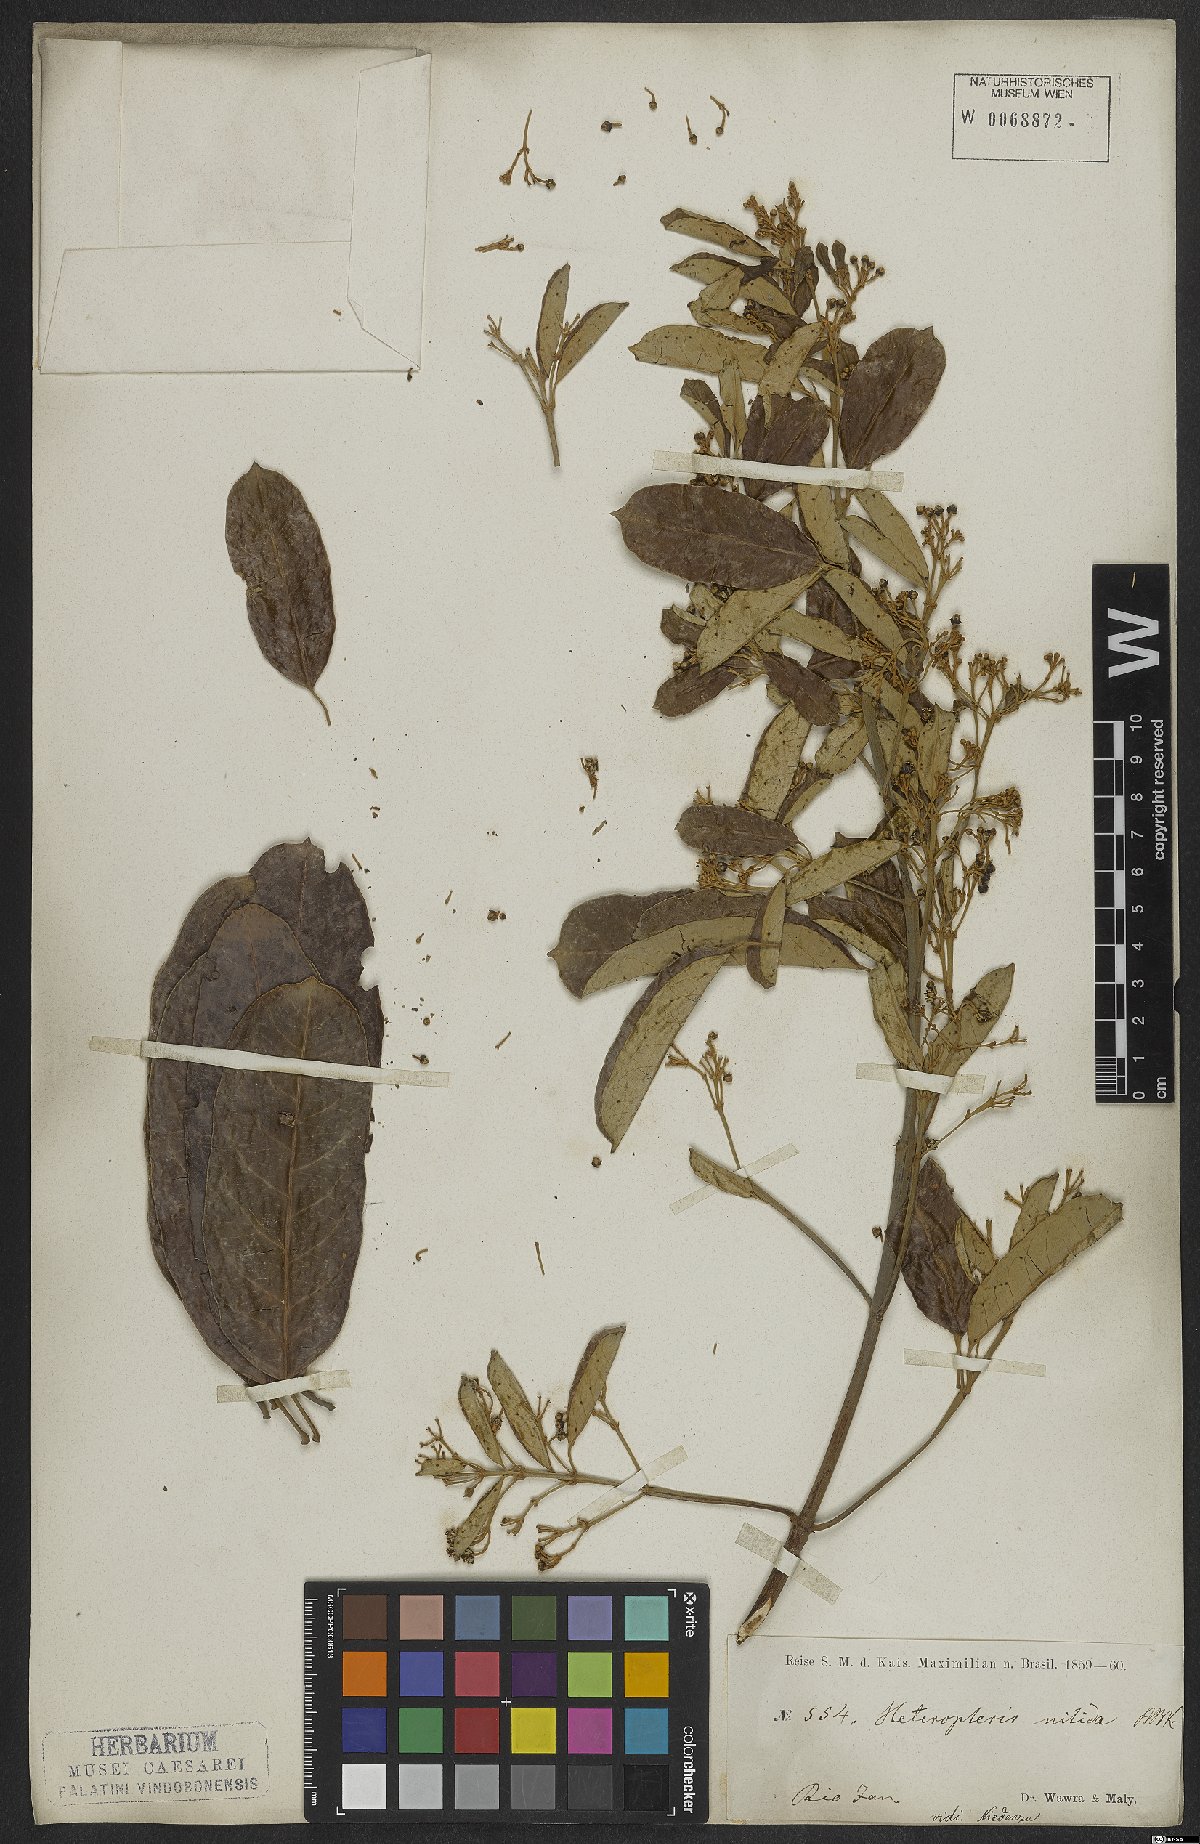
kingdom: Plantae
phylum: Tracheophyta
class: Magnoliopsida
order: Malpighiales
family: Malpighiaceae
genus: Heteropterys
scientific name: Heteropterys nitida
